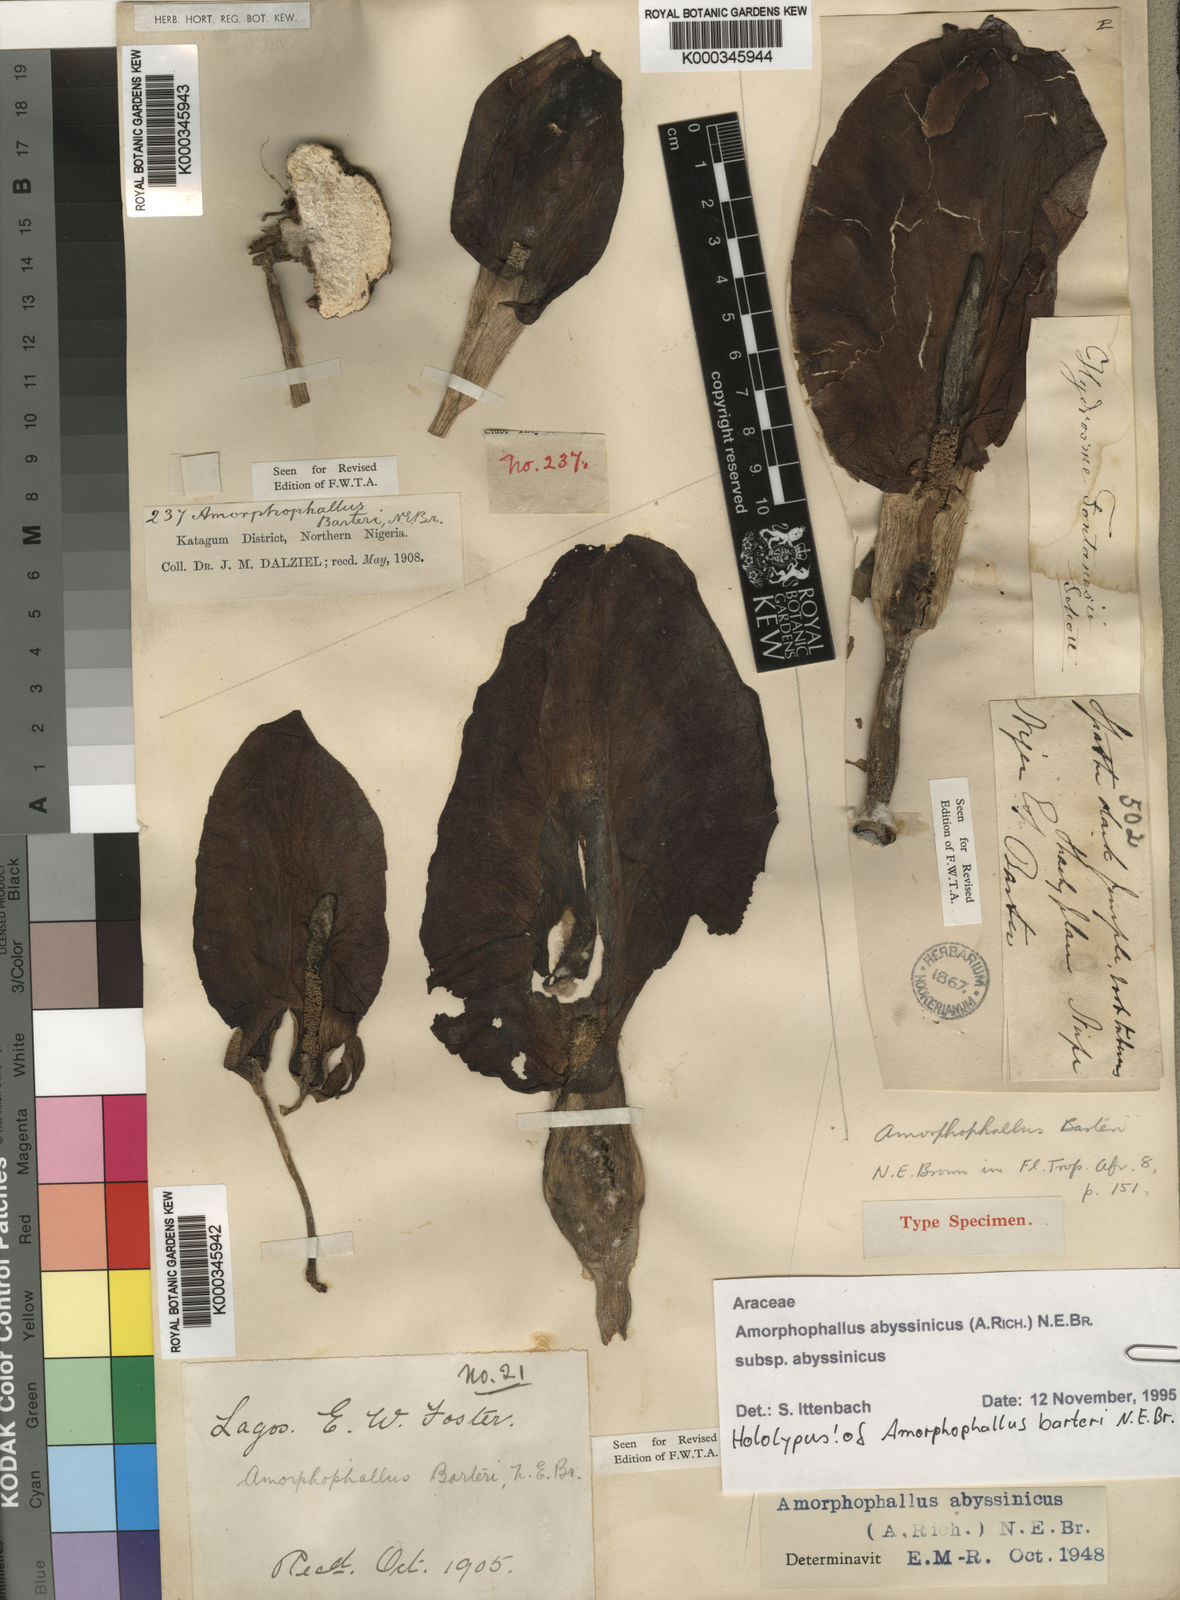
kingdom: Plantae
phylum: Tracheophyta
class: Liliopsida
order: Alismatales
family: Araceae
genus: Amorphophallus
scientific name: Amorphophallus abyssinicus
